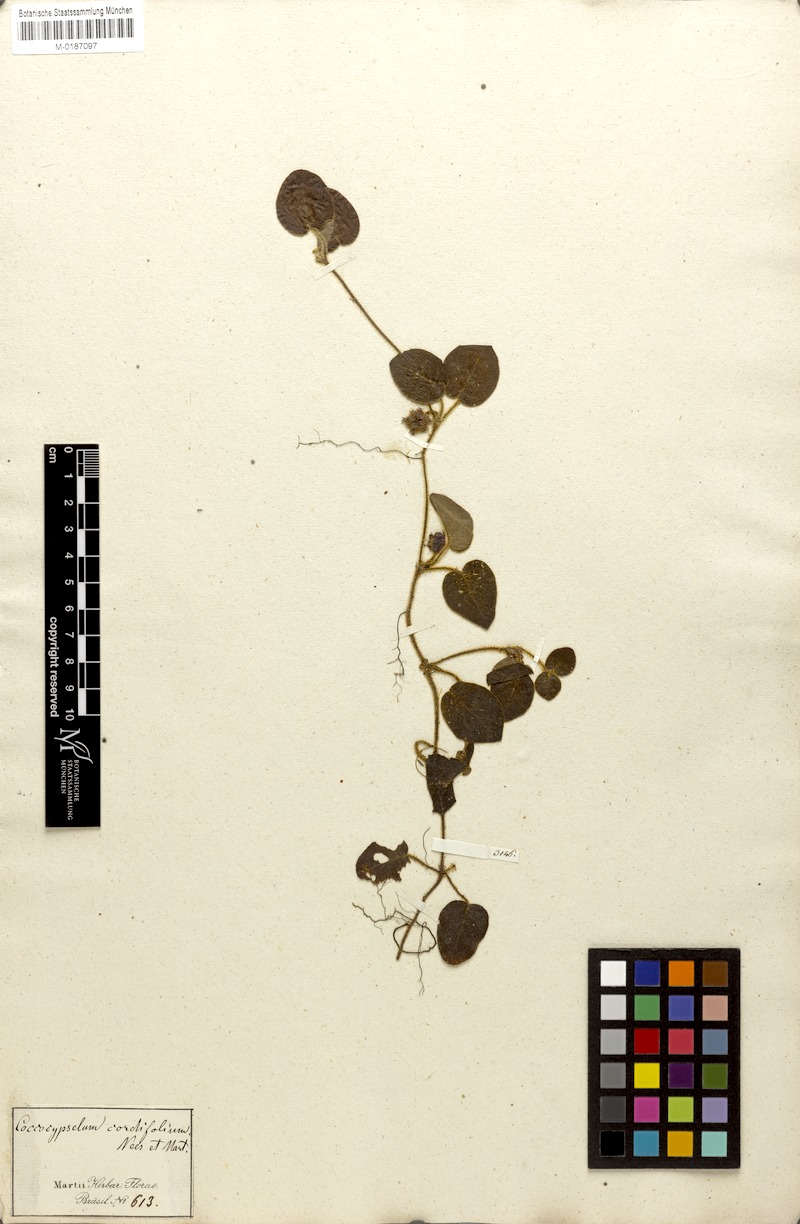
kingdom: Plantae
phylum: Tracheophyta
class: Magnoliopsida
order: Gentianales
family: Rubiaceae
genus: Coccocypselum
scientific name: Coccocypselum cordifolium
